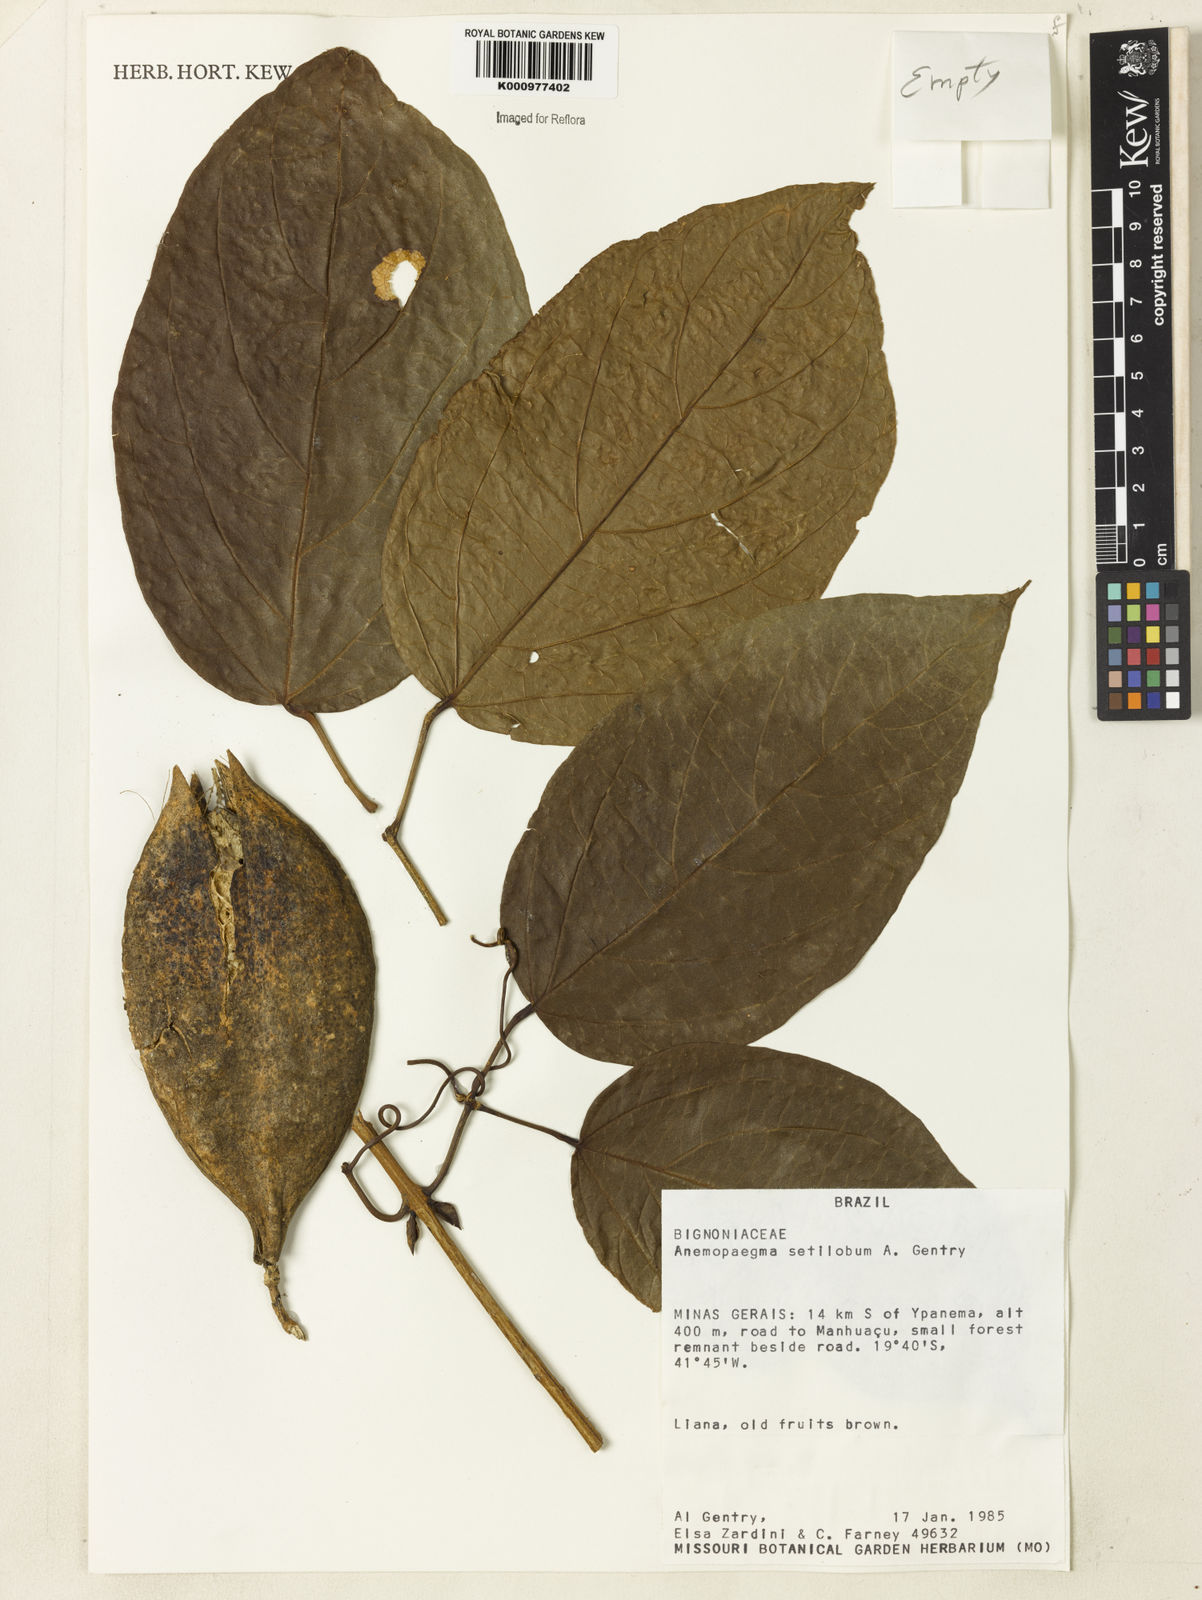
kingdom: Plantae
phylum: Tracheophyta
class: Magnoliopsida
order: Lamiales
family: Bignoniaceae
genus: Anemopaegma
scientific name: Anemopaegma setilobum
